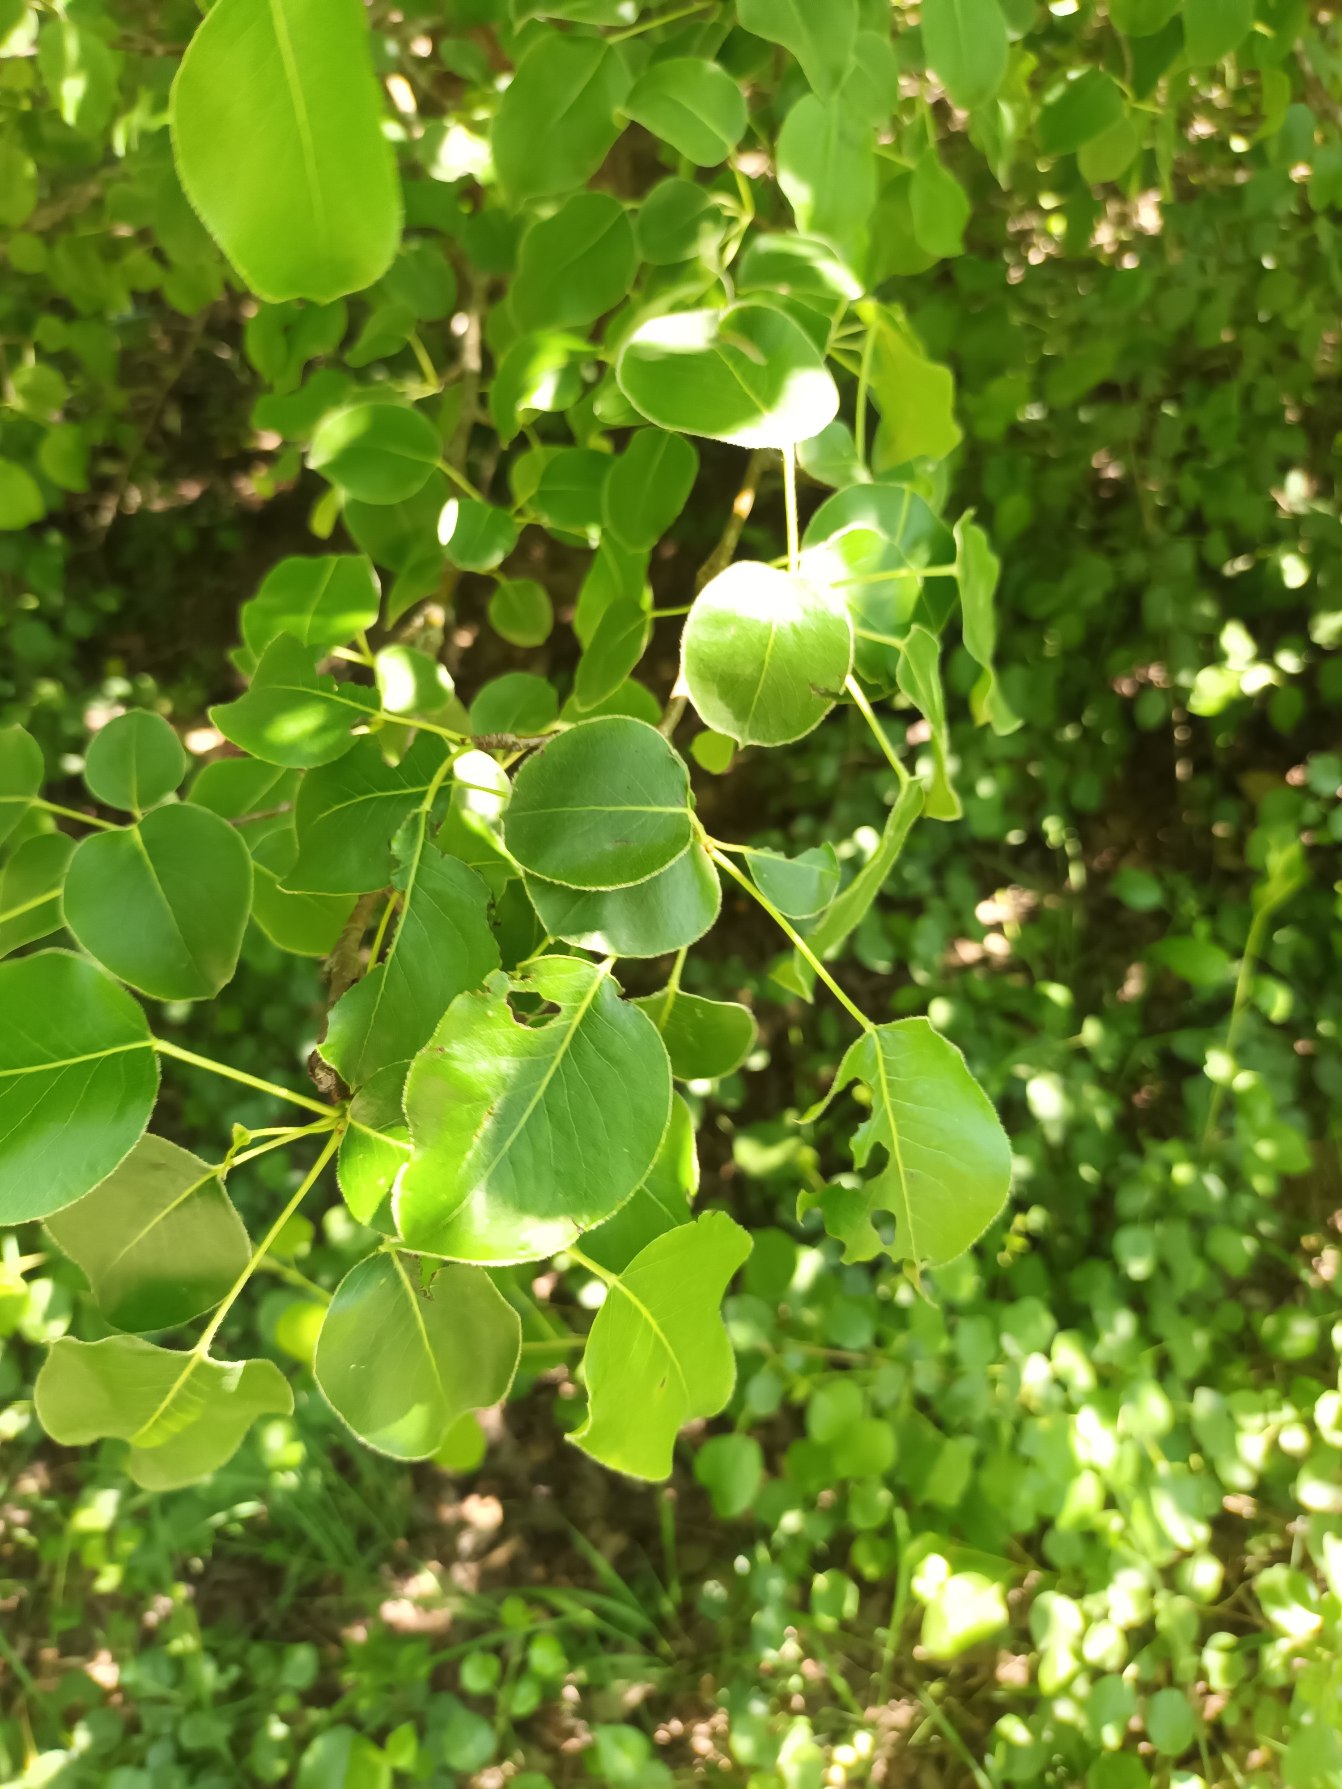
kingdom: Plantae
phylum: Tracheophyta
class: Magnoliopsida
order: Rosales
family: Rosaceae
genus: Pyrus
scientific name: Pyrus communis
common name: Pære
